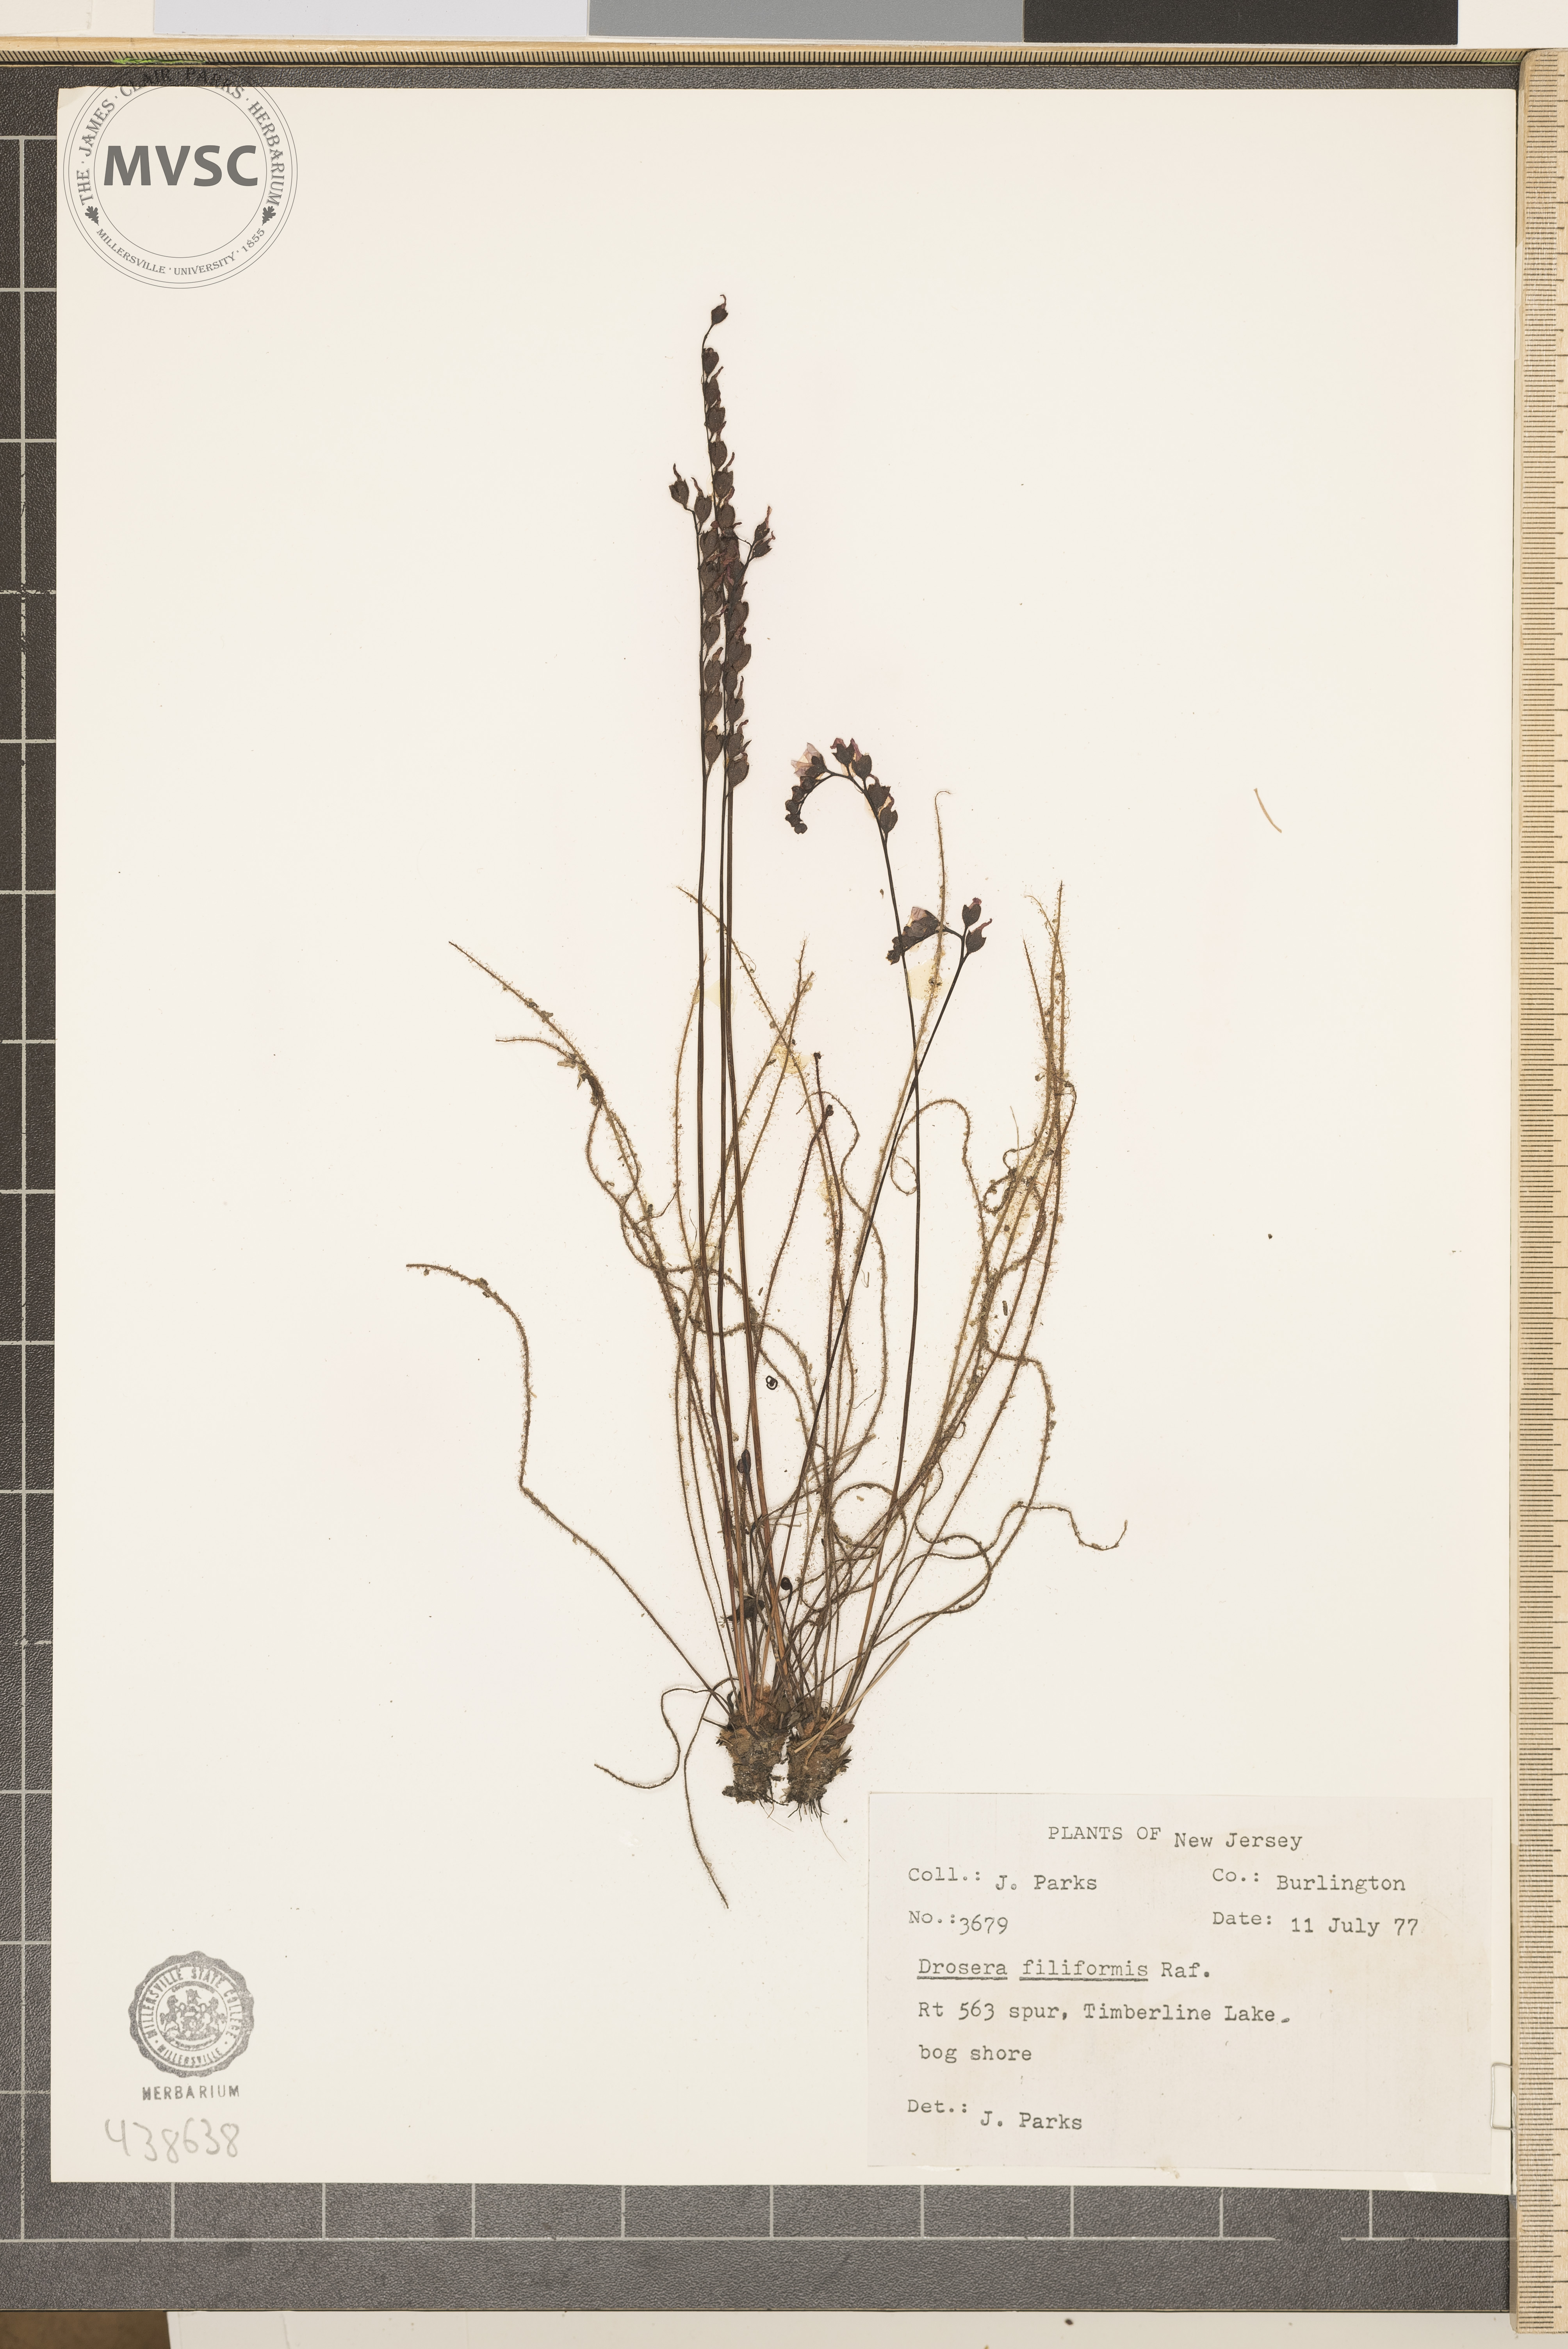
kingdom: Plantae
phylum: Tracheophyta
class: Magnoliopsida
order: Caryophyllales
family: Droseraceae
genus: Drosera
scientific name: Drosera filiformis
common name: Dew-thread
